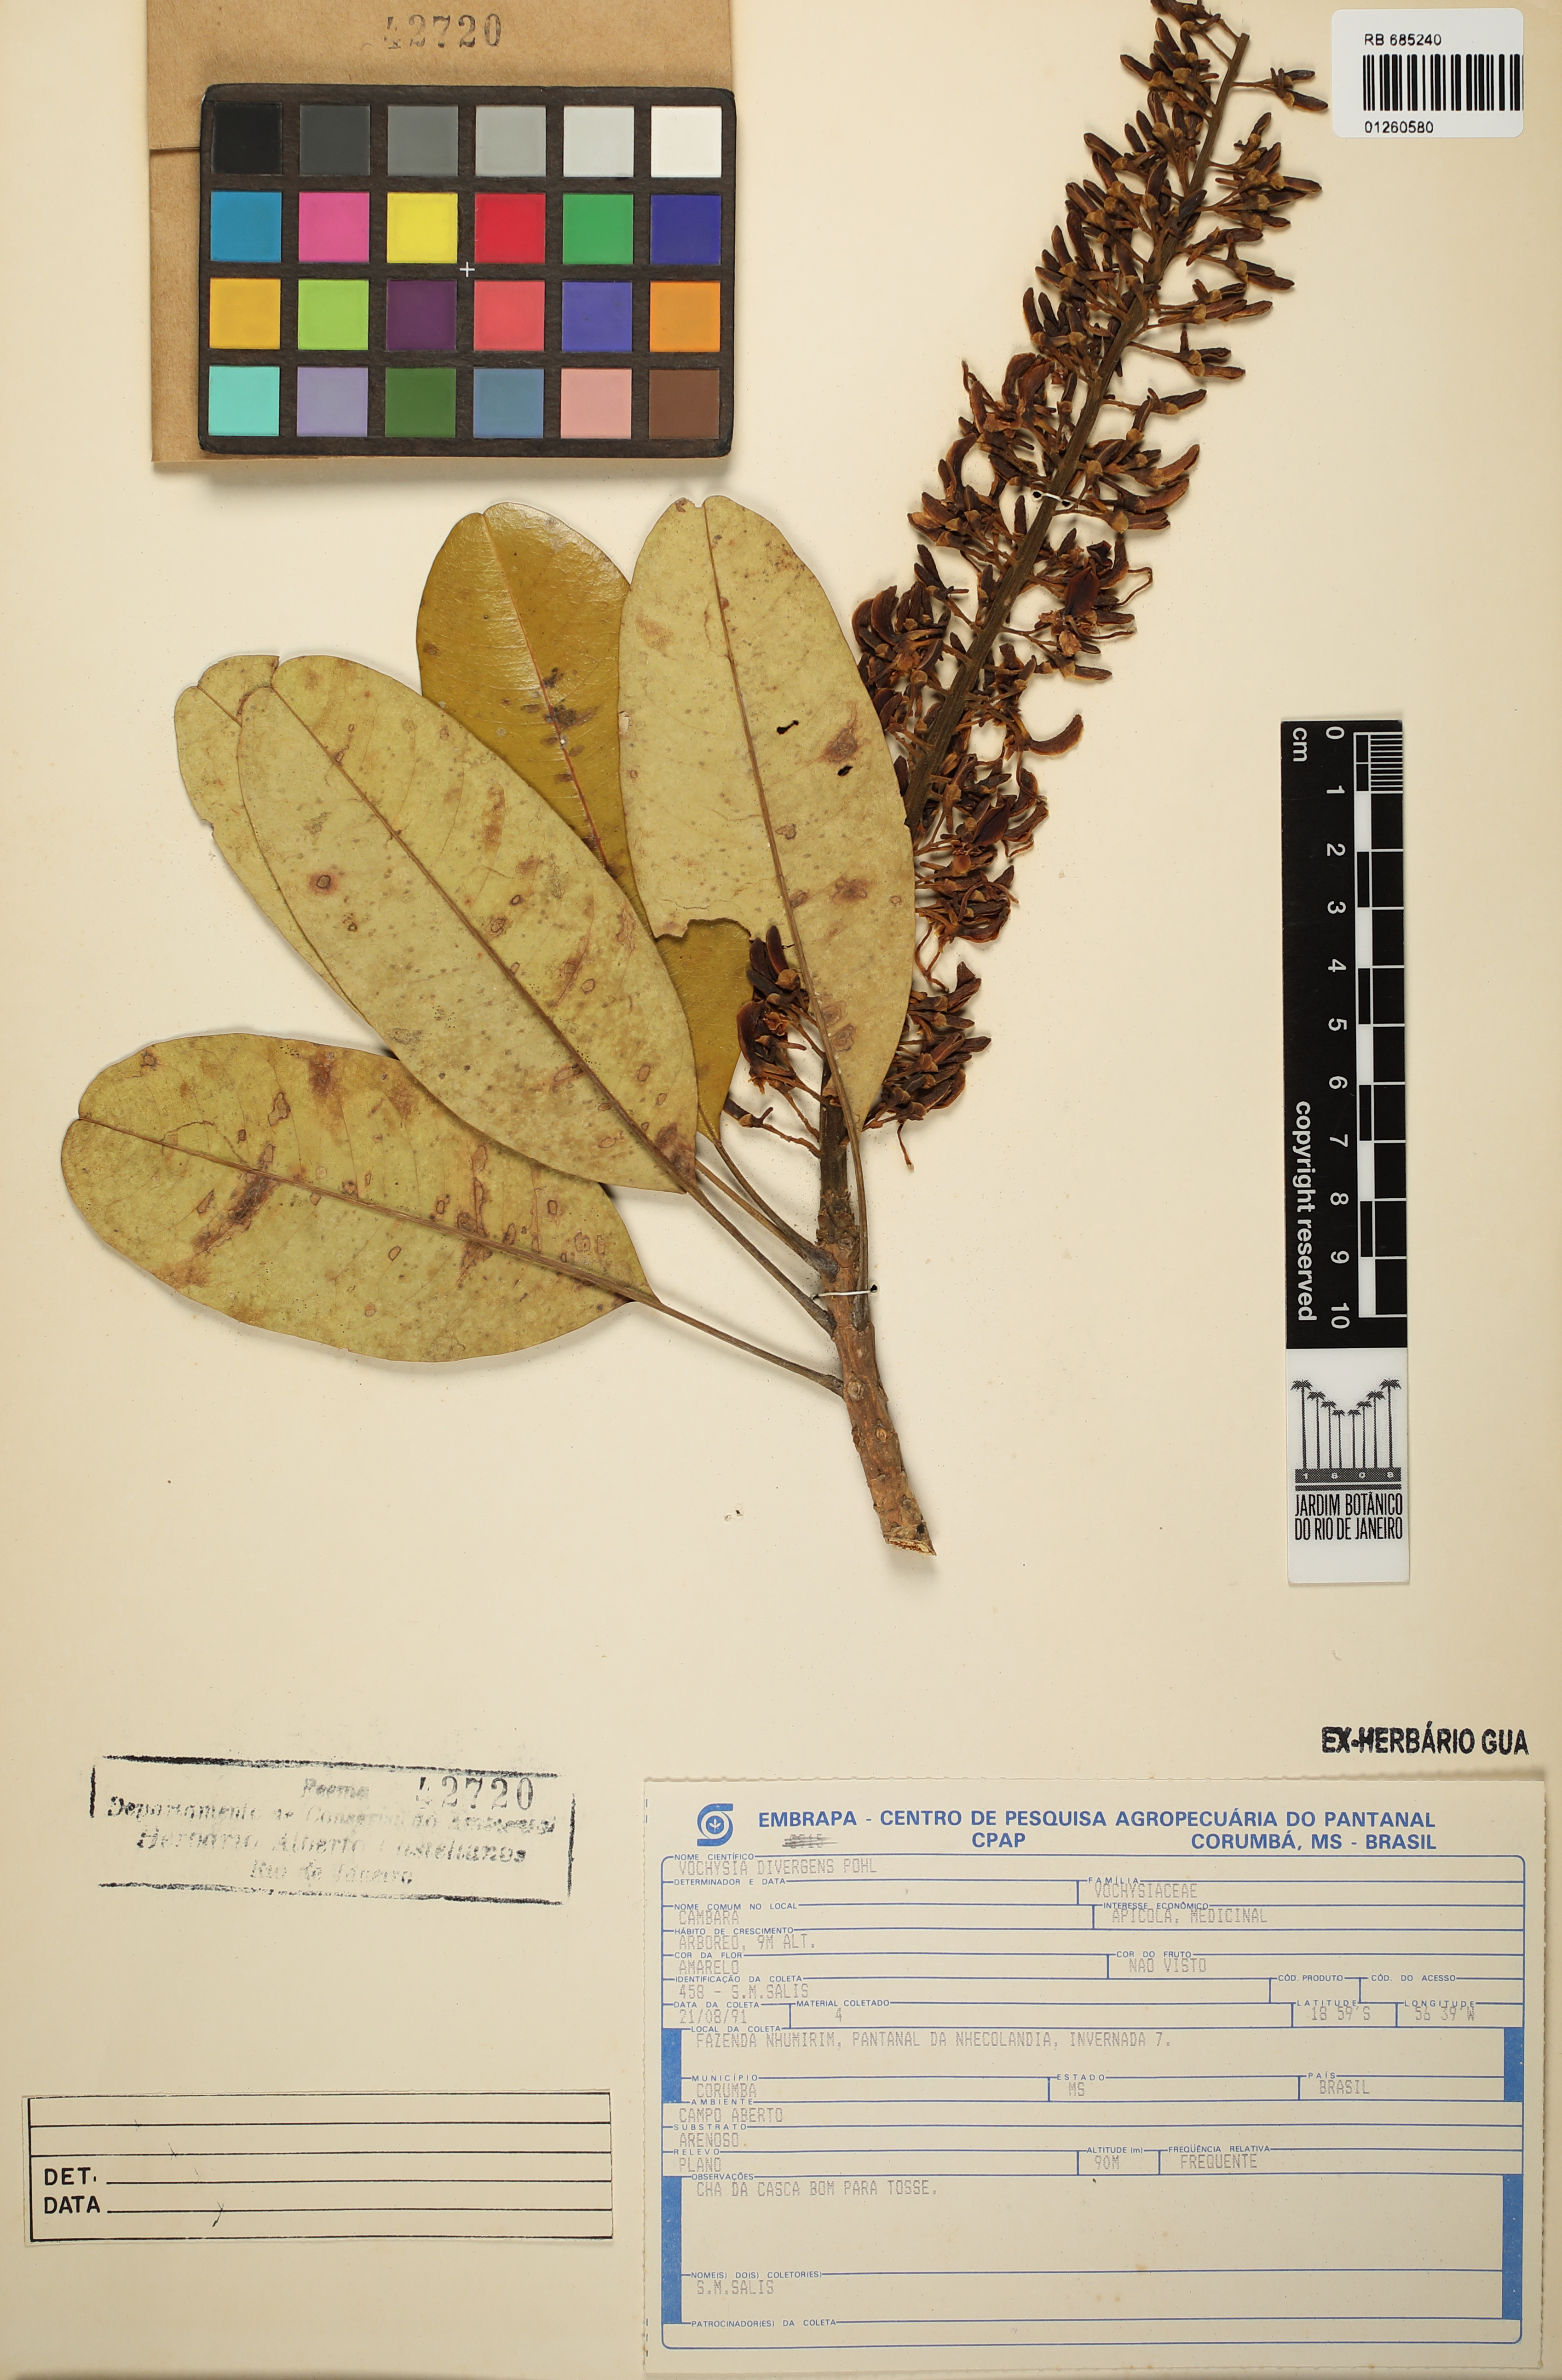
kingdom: Plantae
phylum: Tracheophyta
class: Magnoliopsida
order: Myrtales
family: Vochysiaceae
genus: Vochysia
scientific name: Vochysia divergens
